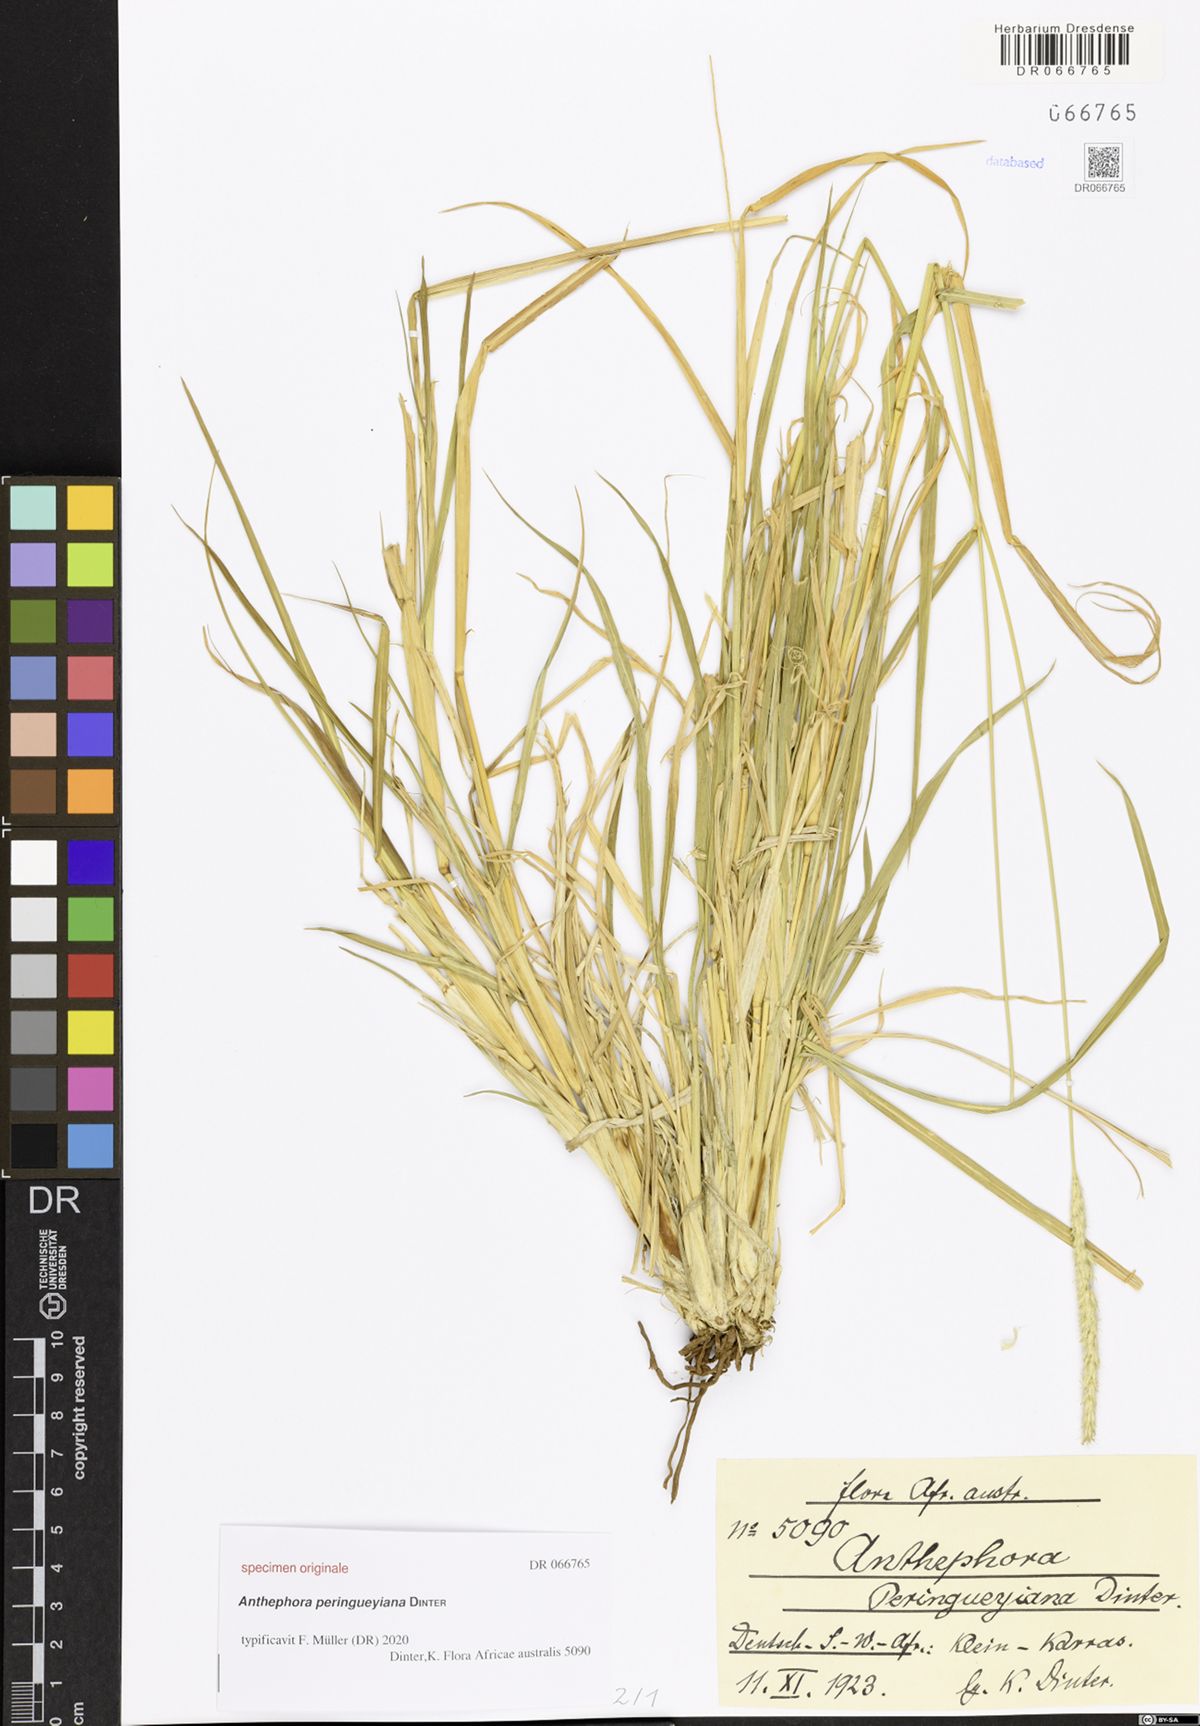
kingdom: Plantae
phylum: Tracheophyta
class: Liliopsida
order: Poales
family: Poaceae
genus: Anthephora
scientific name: Anthephora
